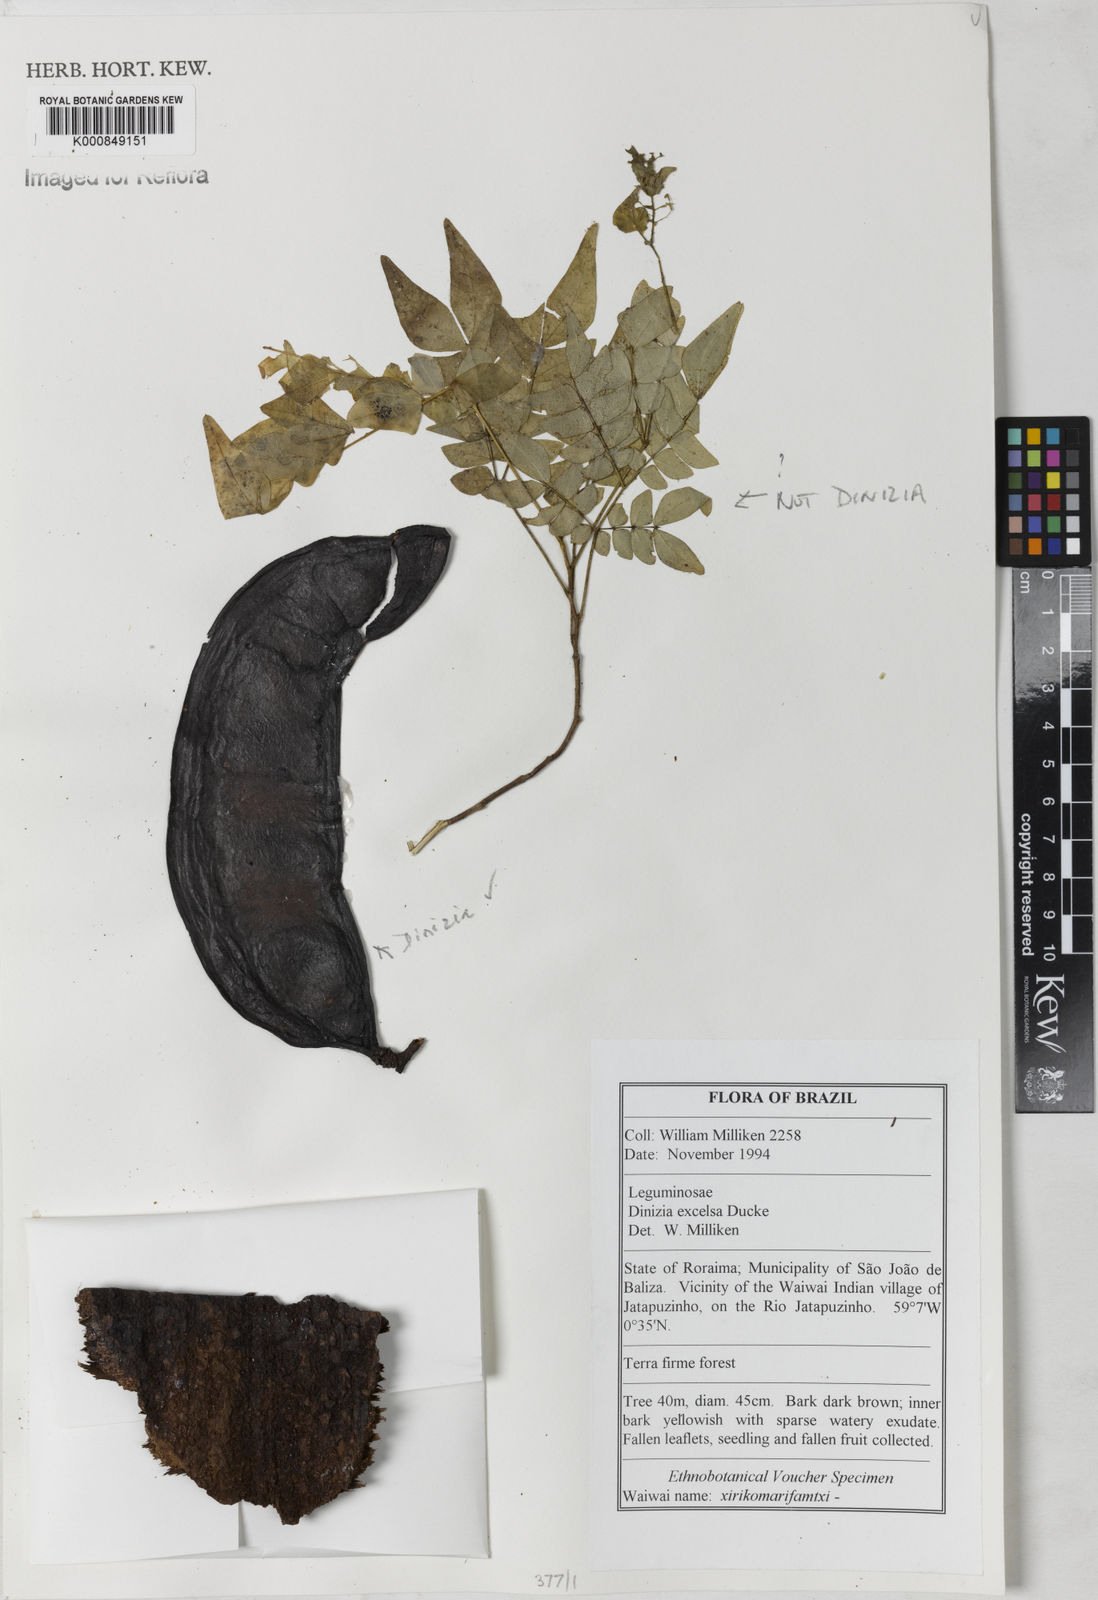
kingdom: Plantae
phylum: Tracheophyta
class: Magnoliopsida
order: Fabales
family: Fabaceae
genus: Dinizia
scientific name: Dinizia excelsa
